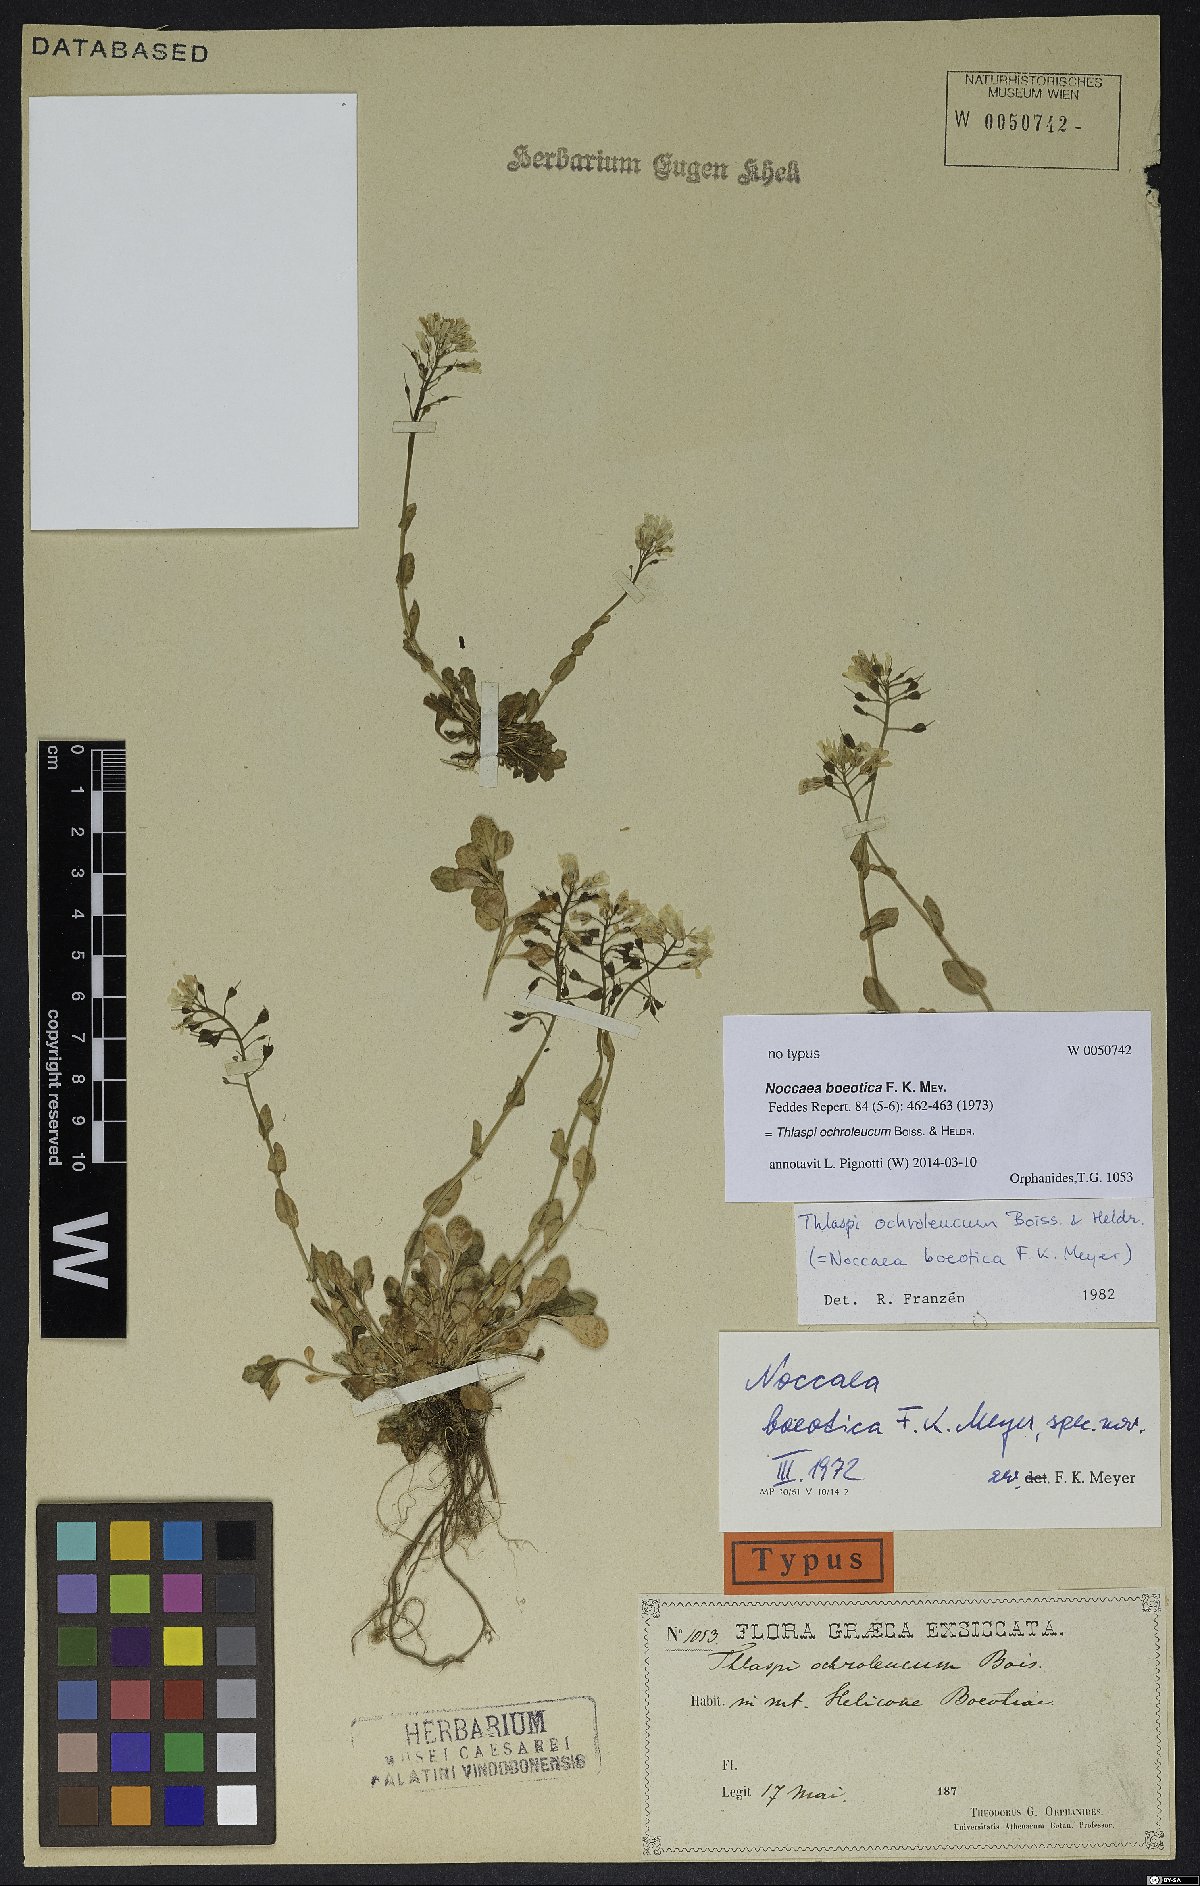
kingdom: Plantae
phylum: Tracheophyta
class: Magnoliopsida
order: Brassicales
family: Brassicaceae
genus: Noccaea
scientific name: Noccaea ochroleuca
